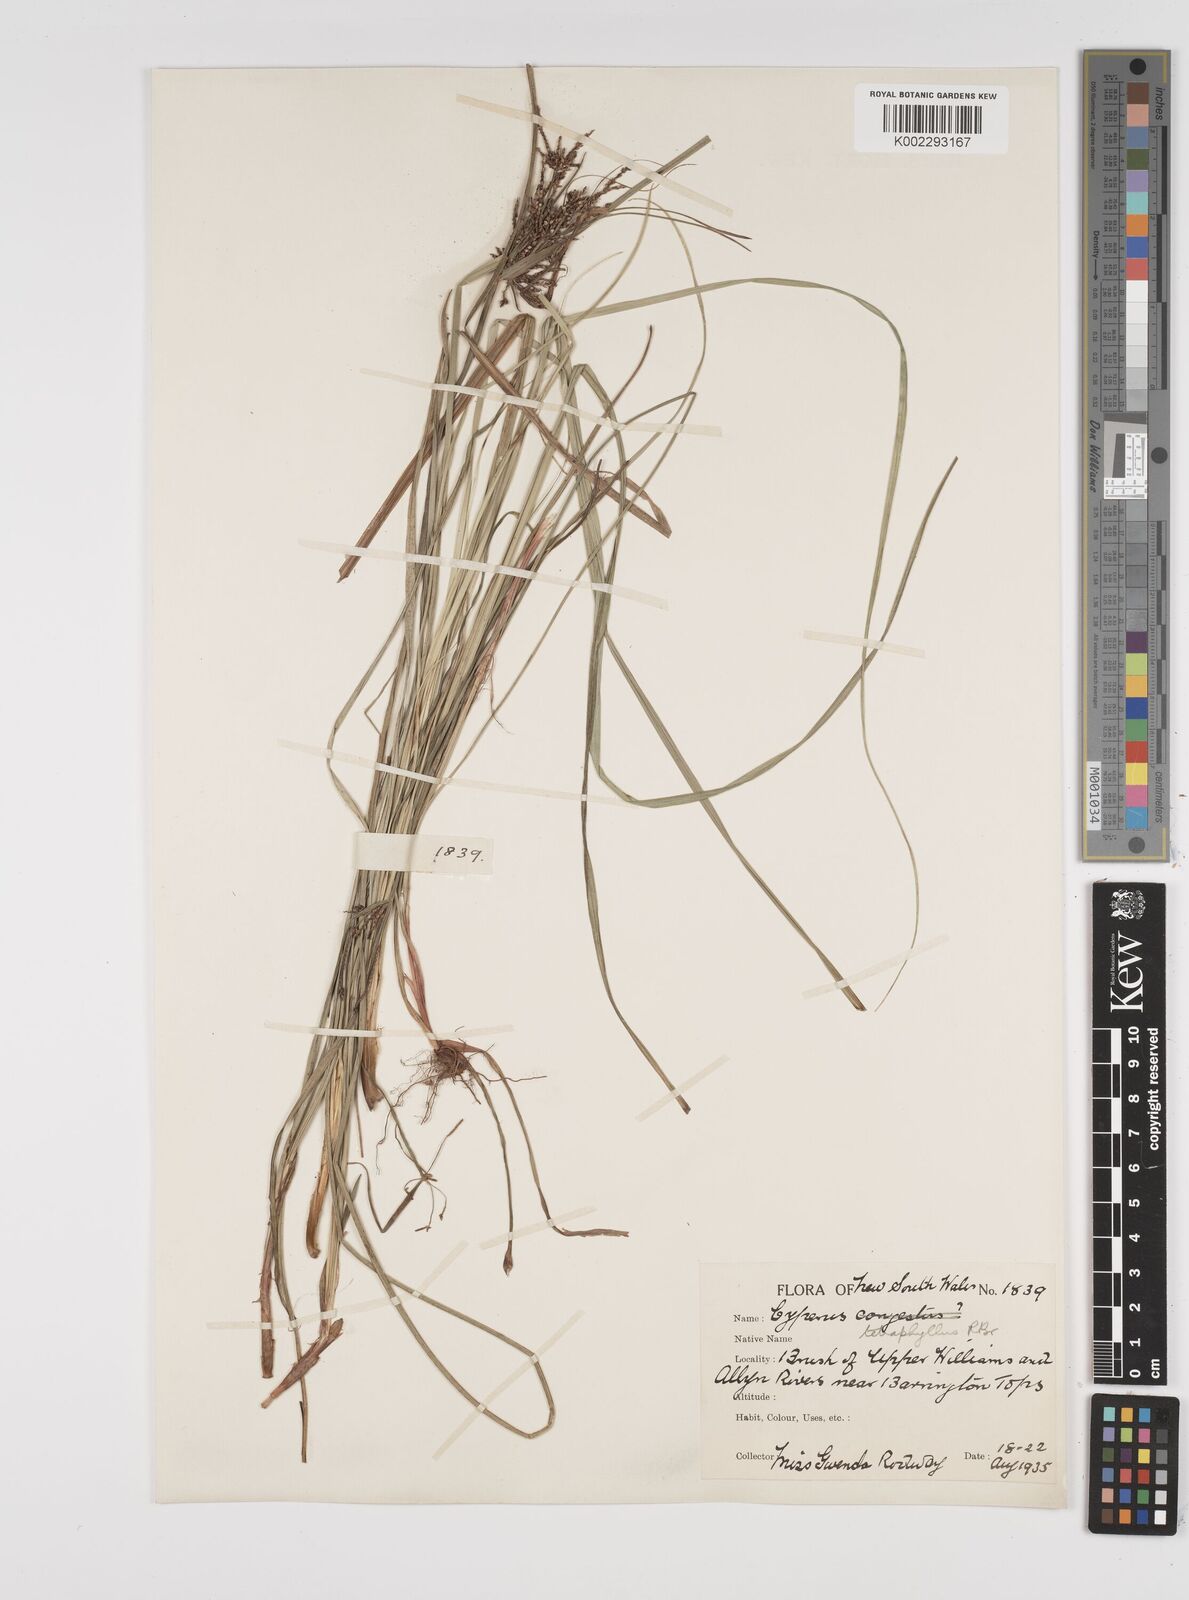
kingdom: Plantae
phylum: Tracheophyta
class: Liliopsida
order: Poales
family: Cyperaceae
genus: Cyperus
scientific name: Cyperus tetraphyllus
